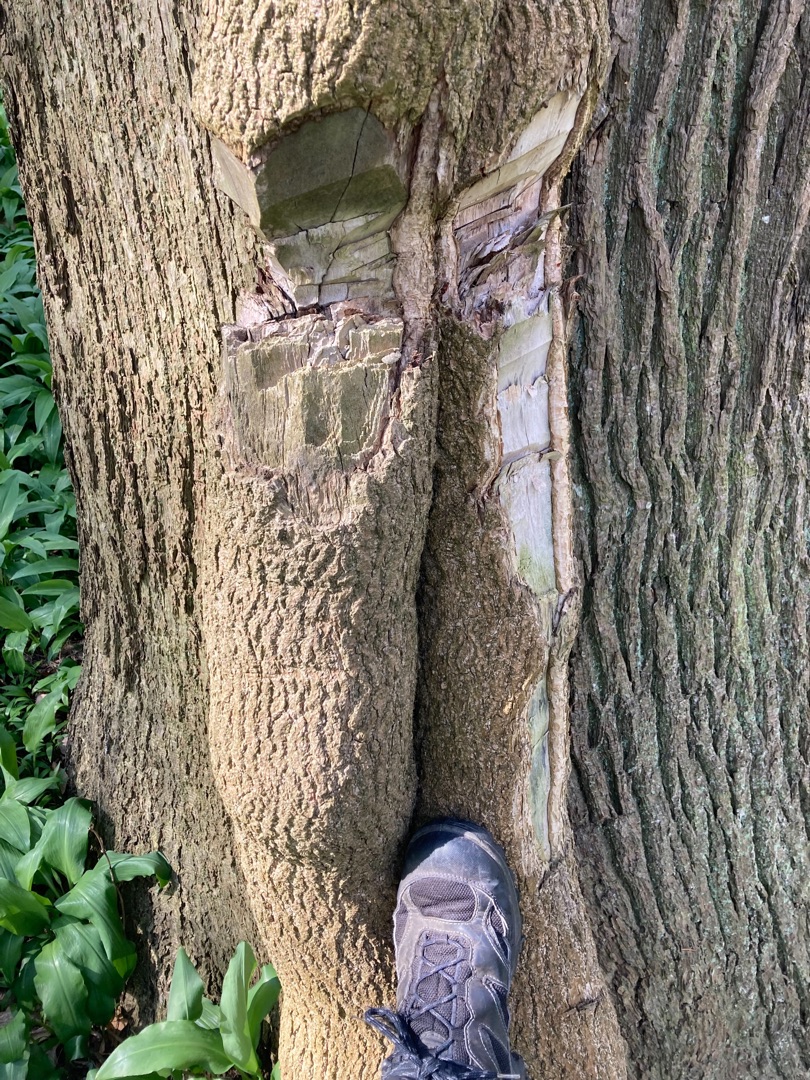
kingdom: Plantae
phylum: Tracheophyta
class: Magnoliopsida
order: Apiales
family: Araliaceae
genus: Hedera
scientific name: Hedera helix
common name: Vedbend
